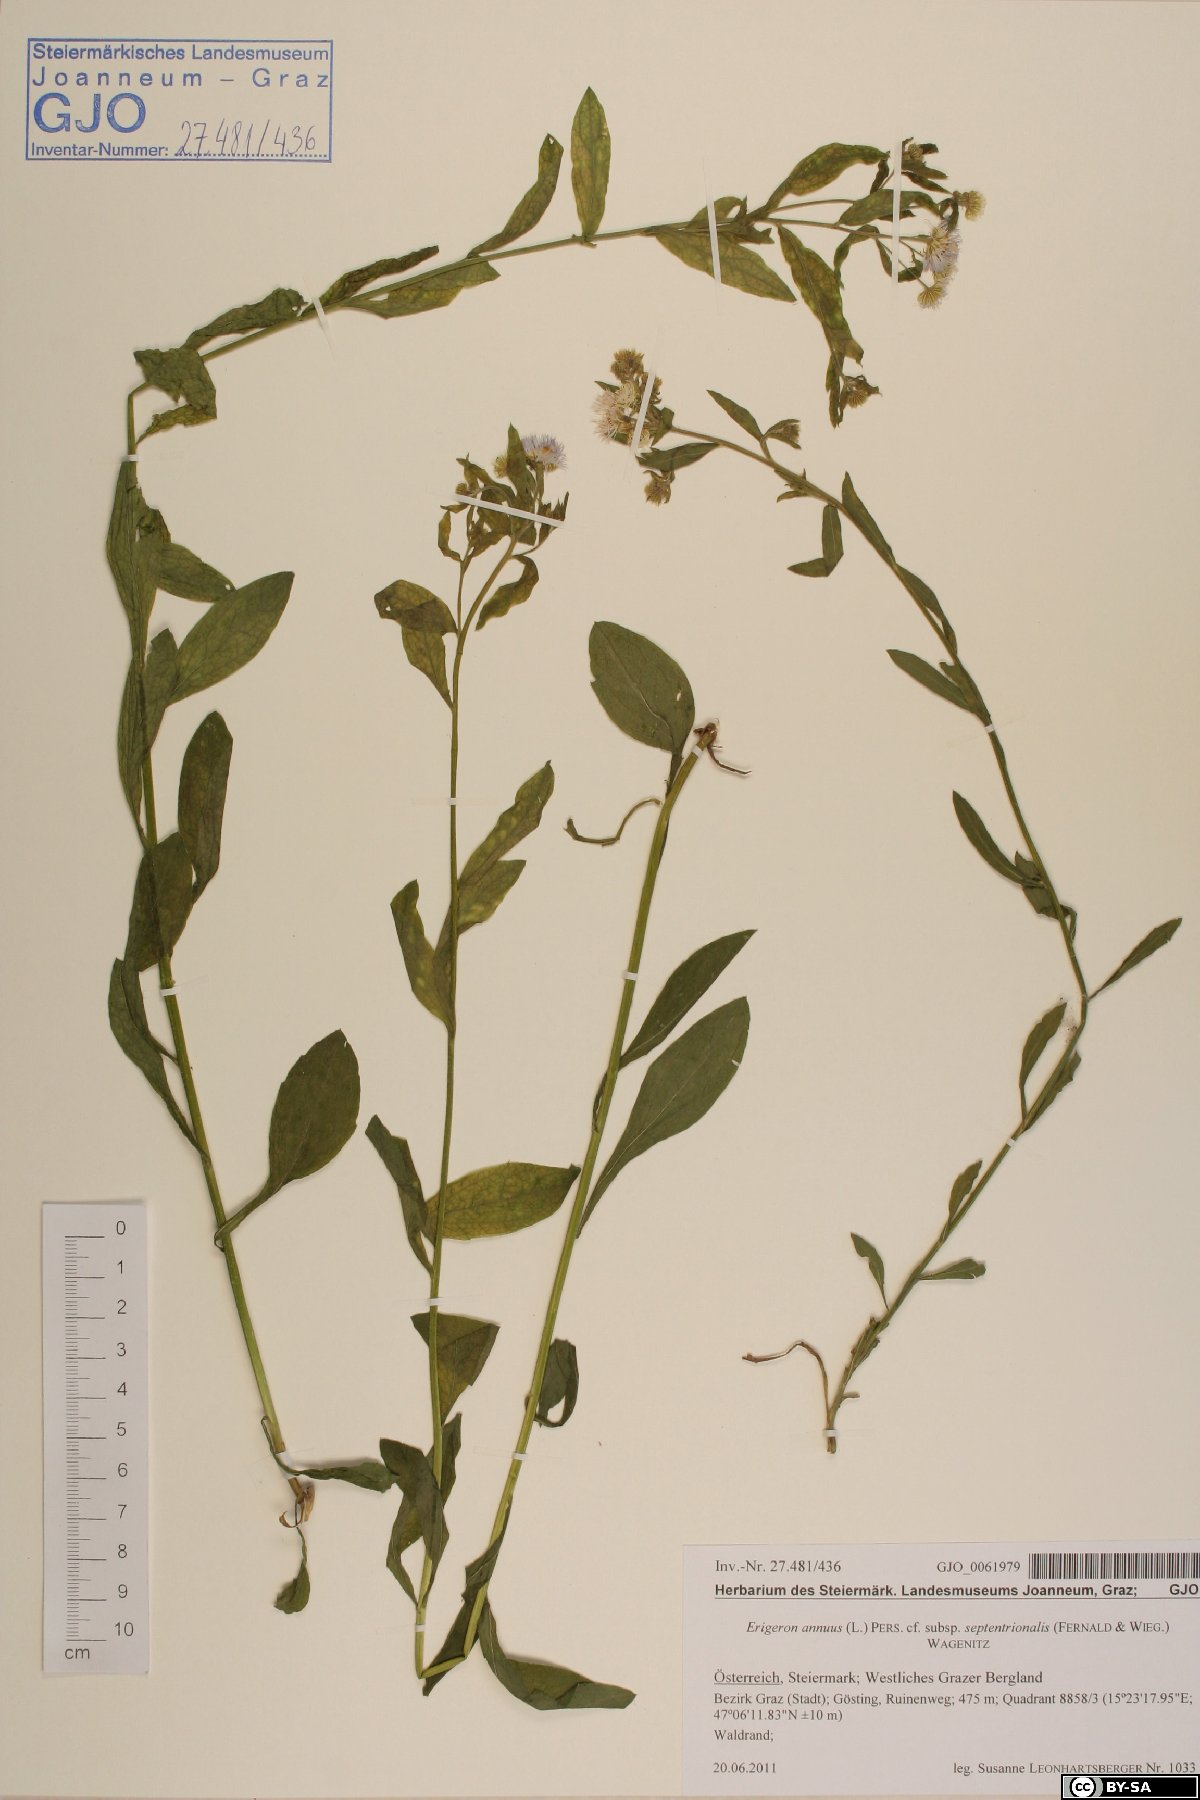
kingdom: Plantae
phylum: Tracheophyta
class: Magnoliopsida
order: Asterales
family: Asteraceae
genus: Erigeron
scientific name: Erigeron annuus
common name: Tall fleabane
